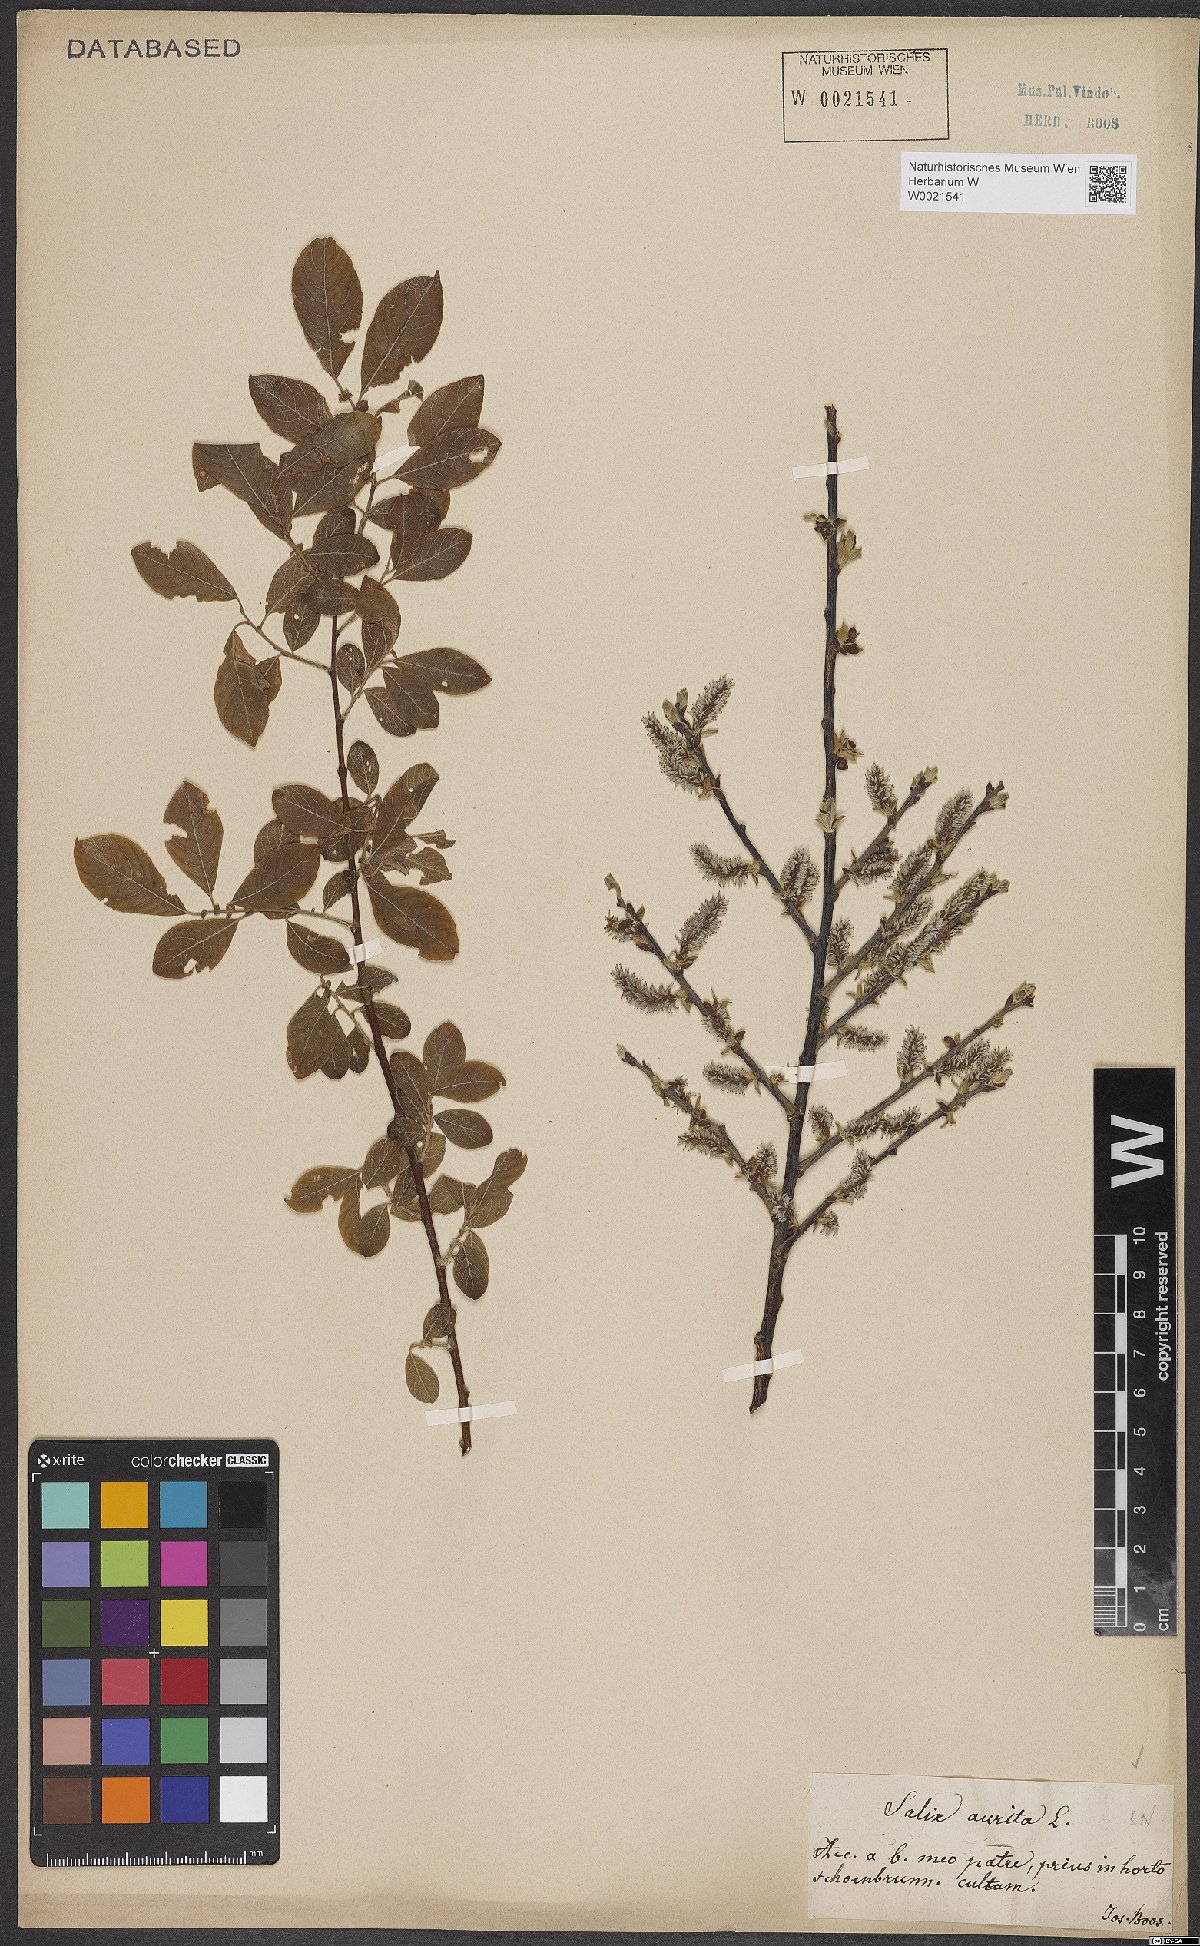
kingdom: Plantae
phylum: Tracheophyta
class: Magnoliopsida
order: Malpighiales
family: Salicaceae
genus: Salix
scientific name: Salix aurita
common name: Eared willow
